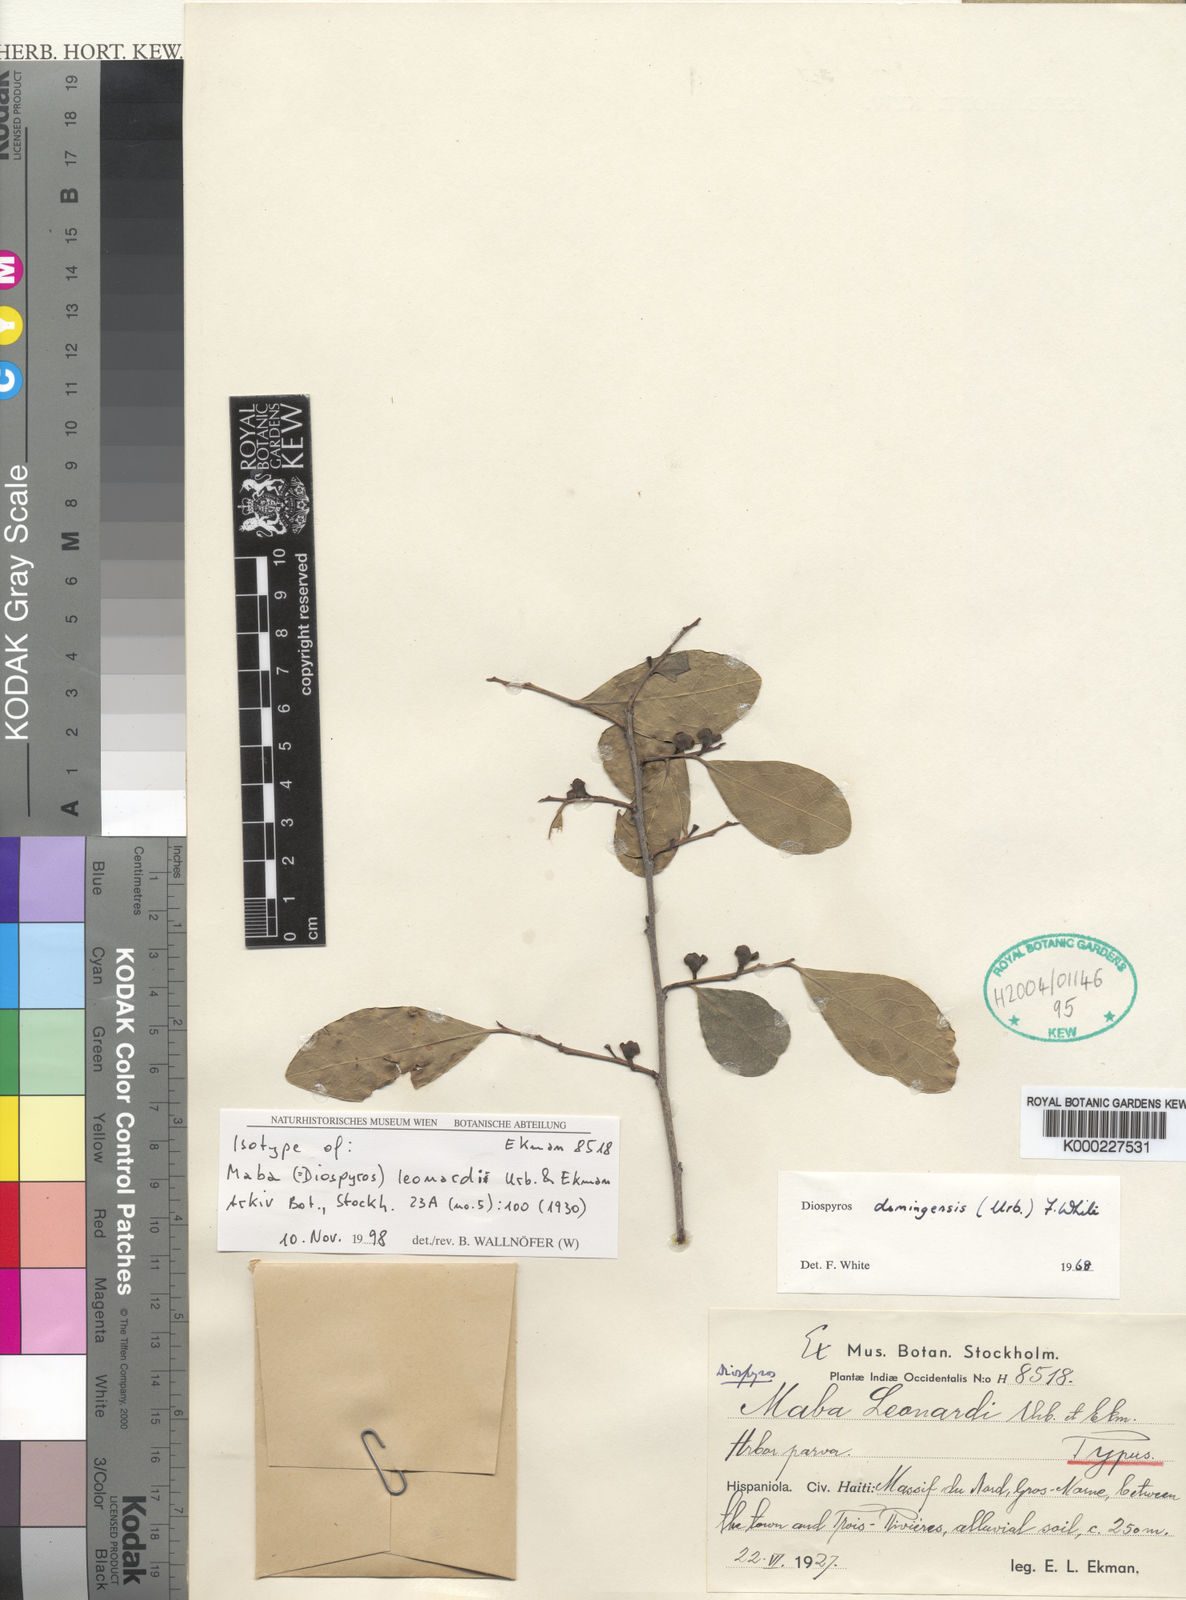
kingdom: Plantae
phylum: Tracheophyta
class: Magnoliopsida
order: Ericales
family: Ebenaceae
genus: Diospyros
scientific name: Diospyros
